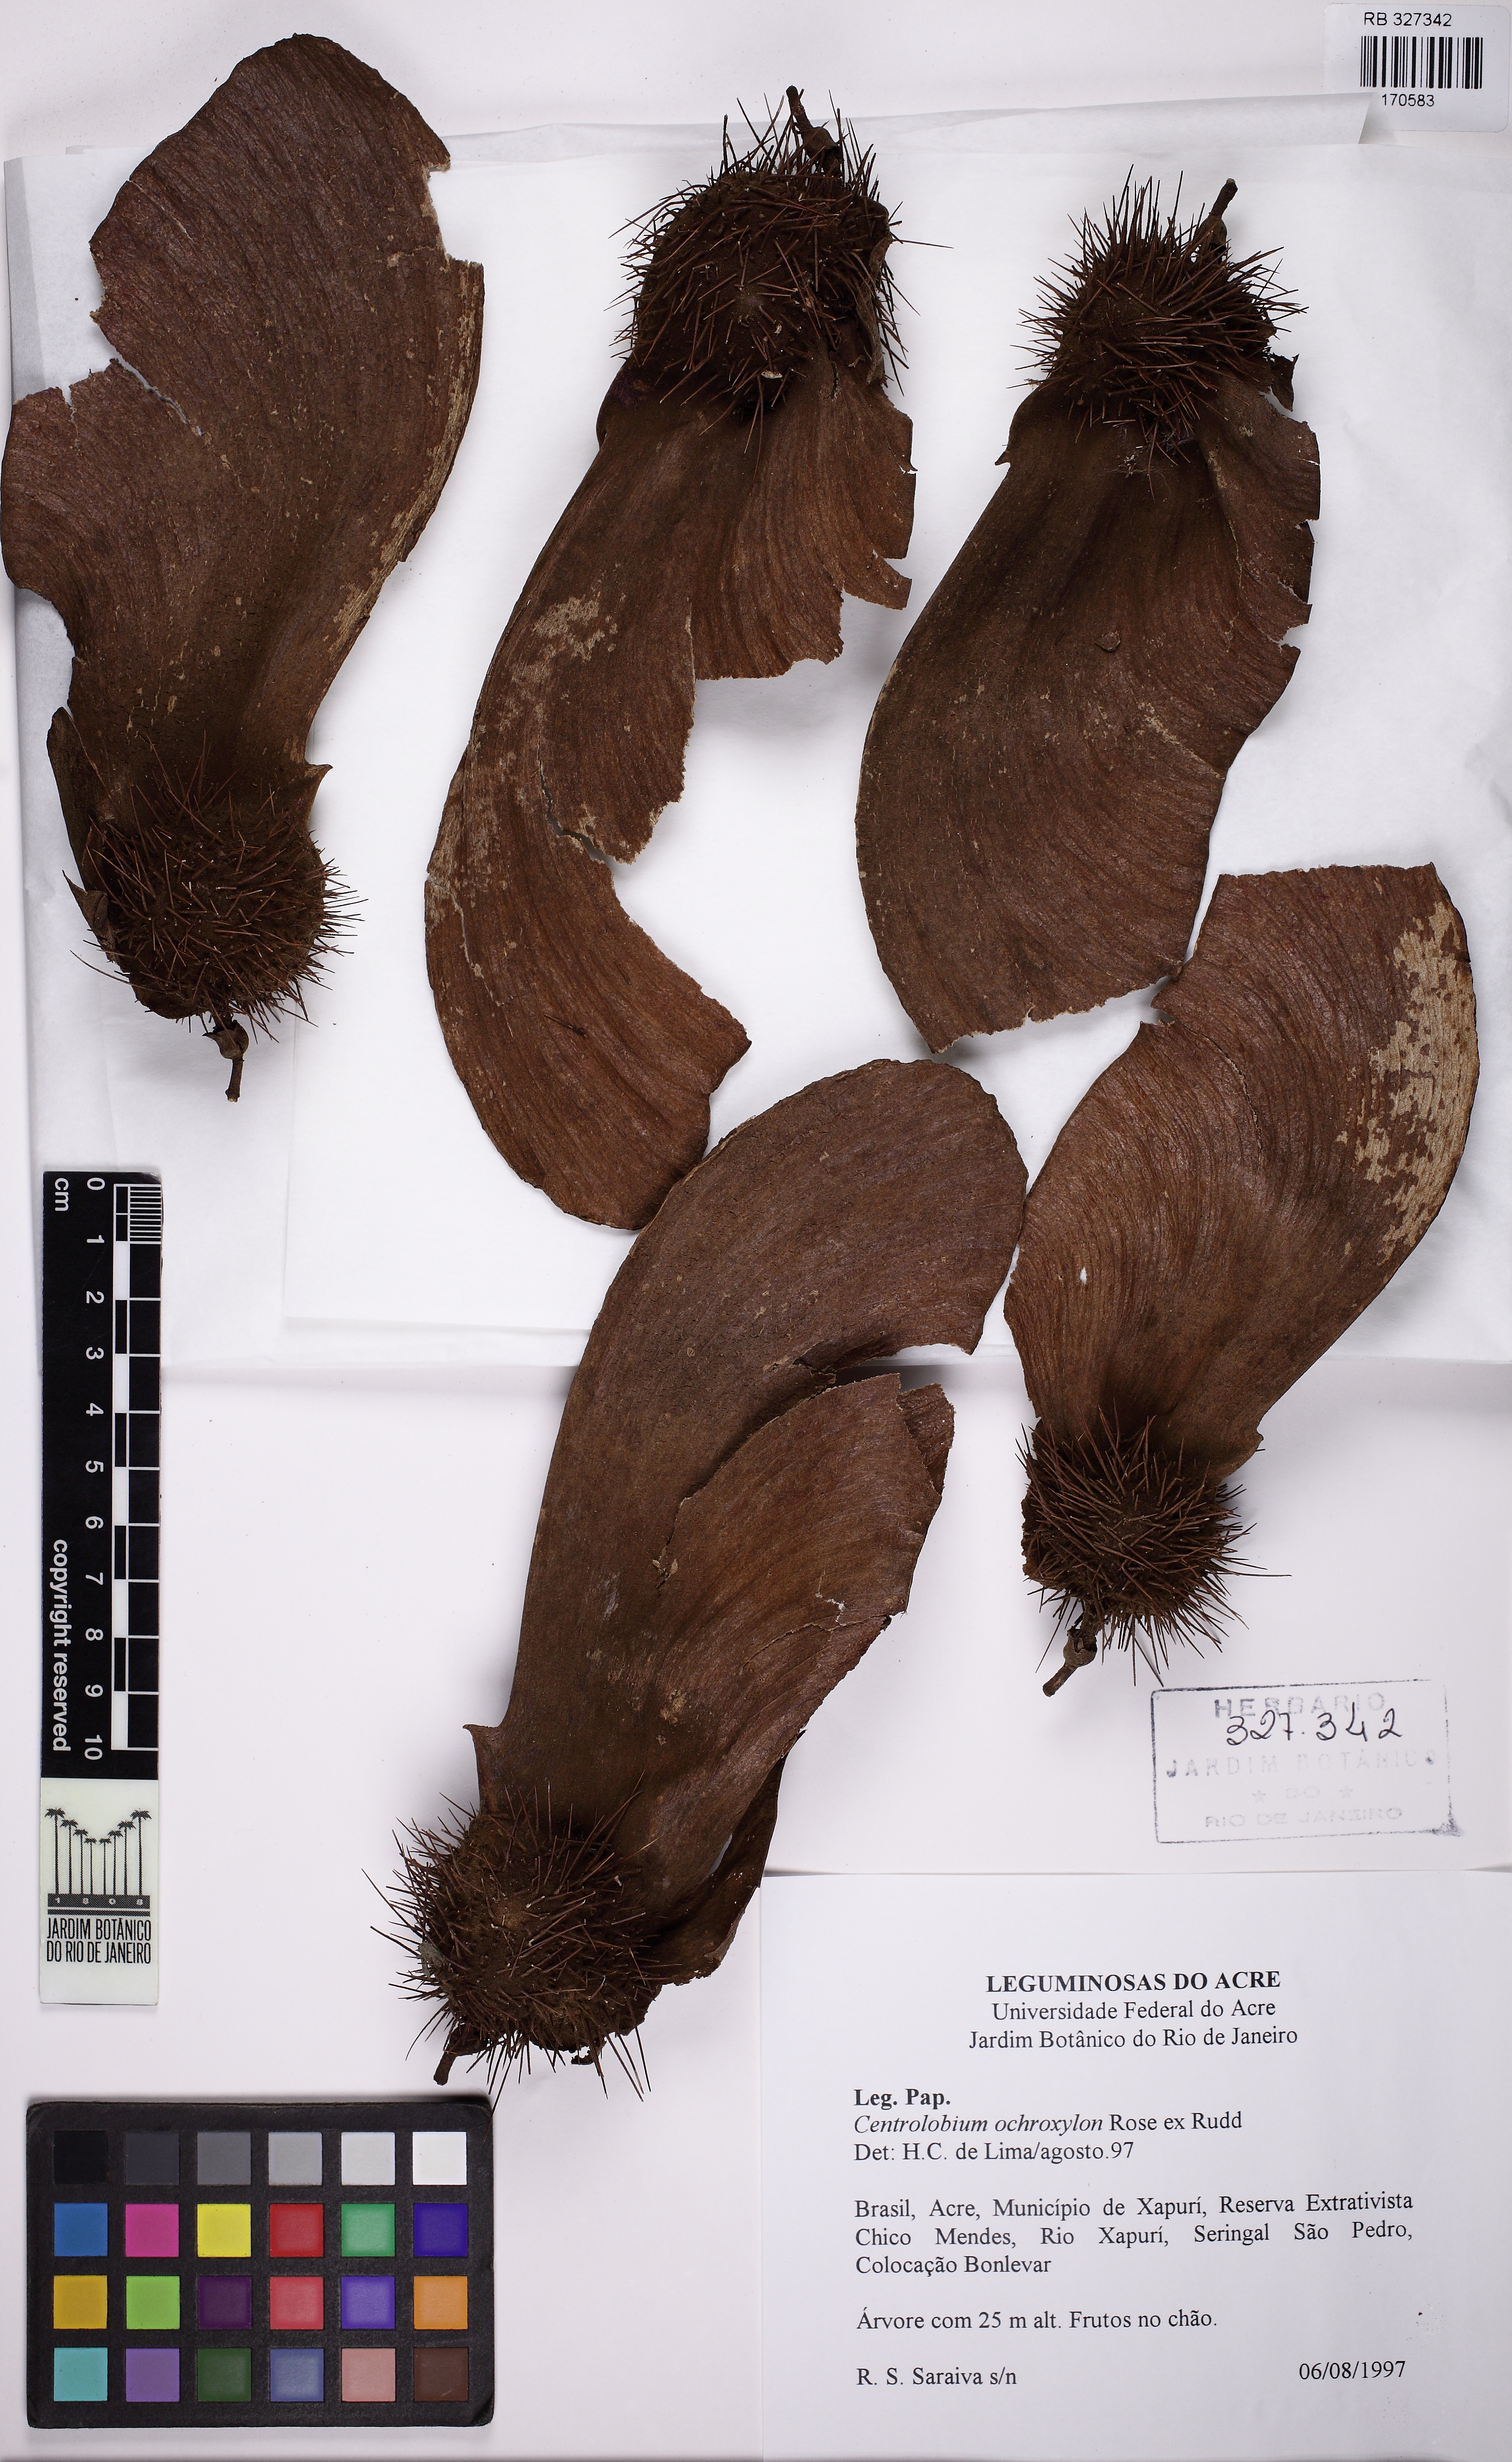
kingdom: Plantae
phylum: Tracheophyta
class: Magnoliopsida
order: Fabales
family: Fabaceae
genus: Centrolobium
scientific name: Centrolobium ochroxylum
